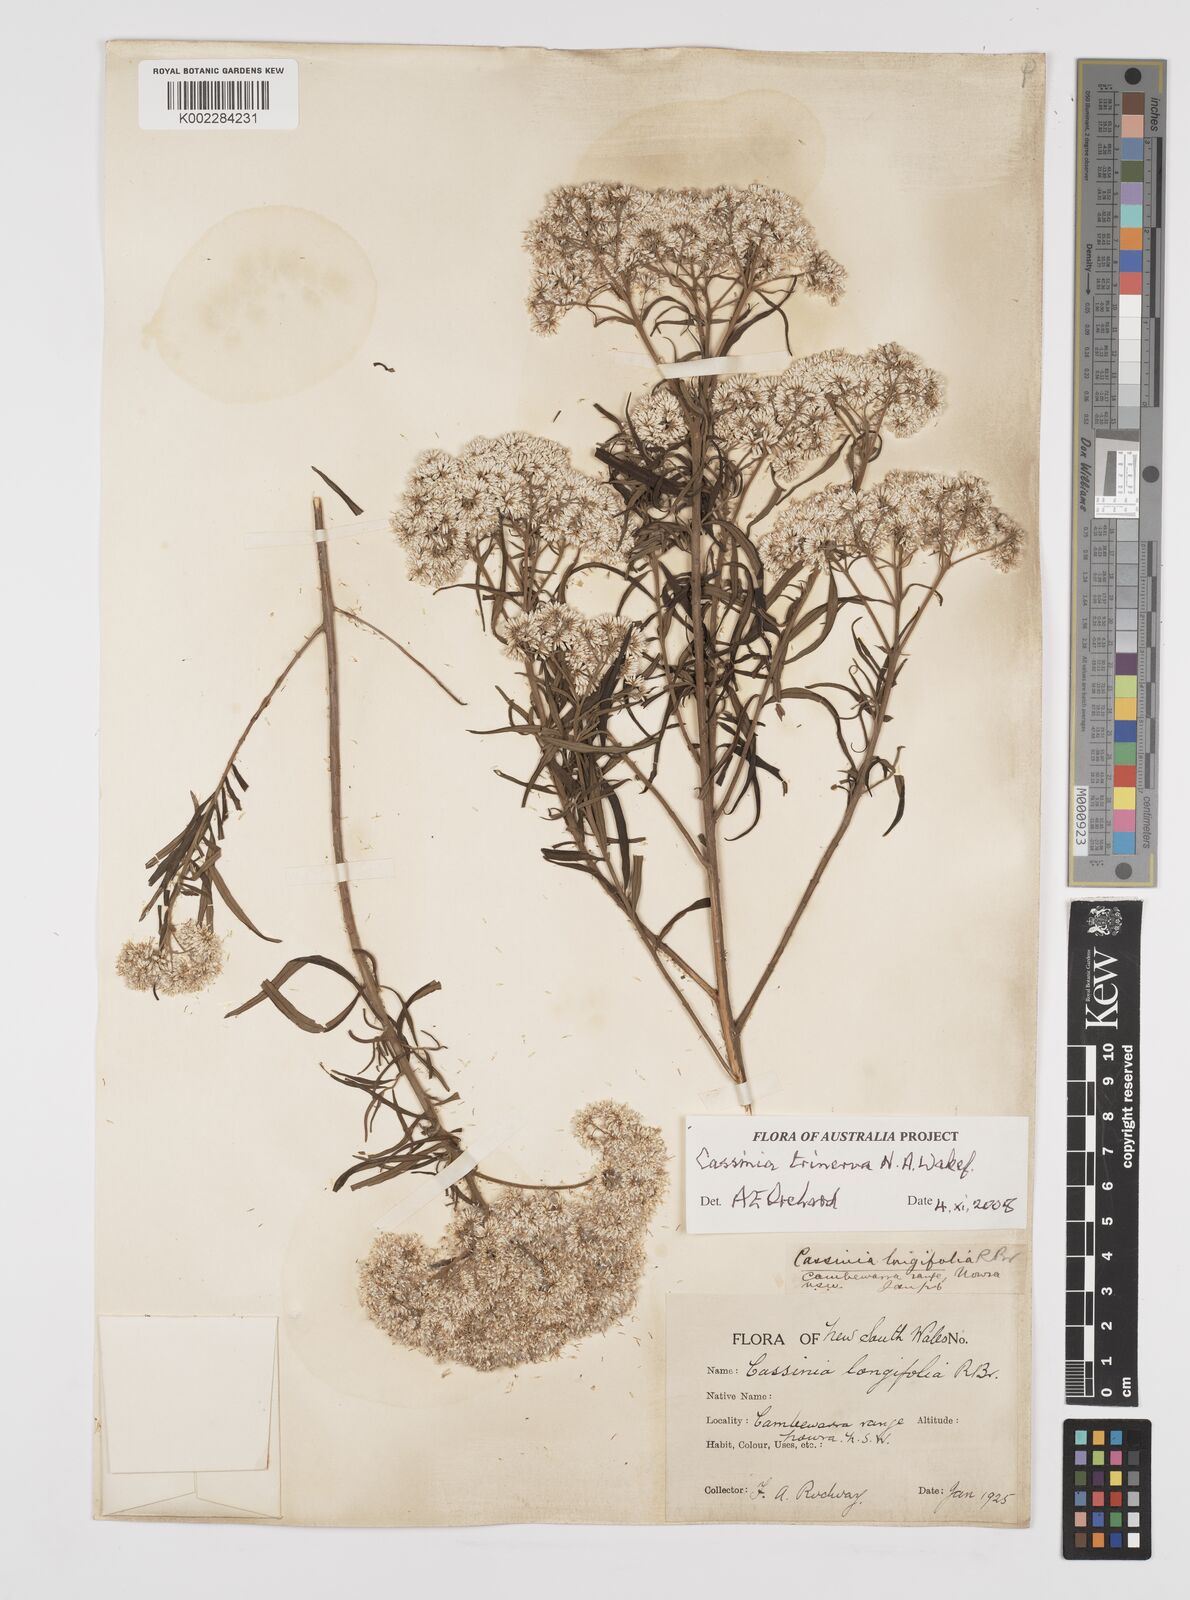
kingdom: Plantae
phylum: Tracheophyta
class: Magnoliopsida
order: Asterales
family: Asteraceae
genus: Cassinia
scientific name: Cassinia trinerva
